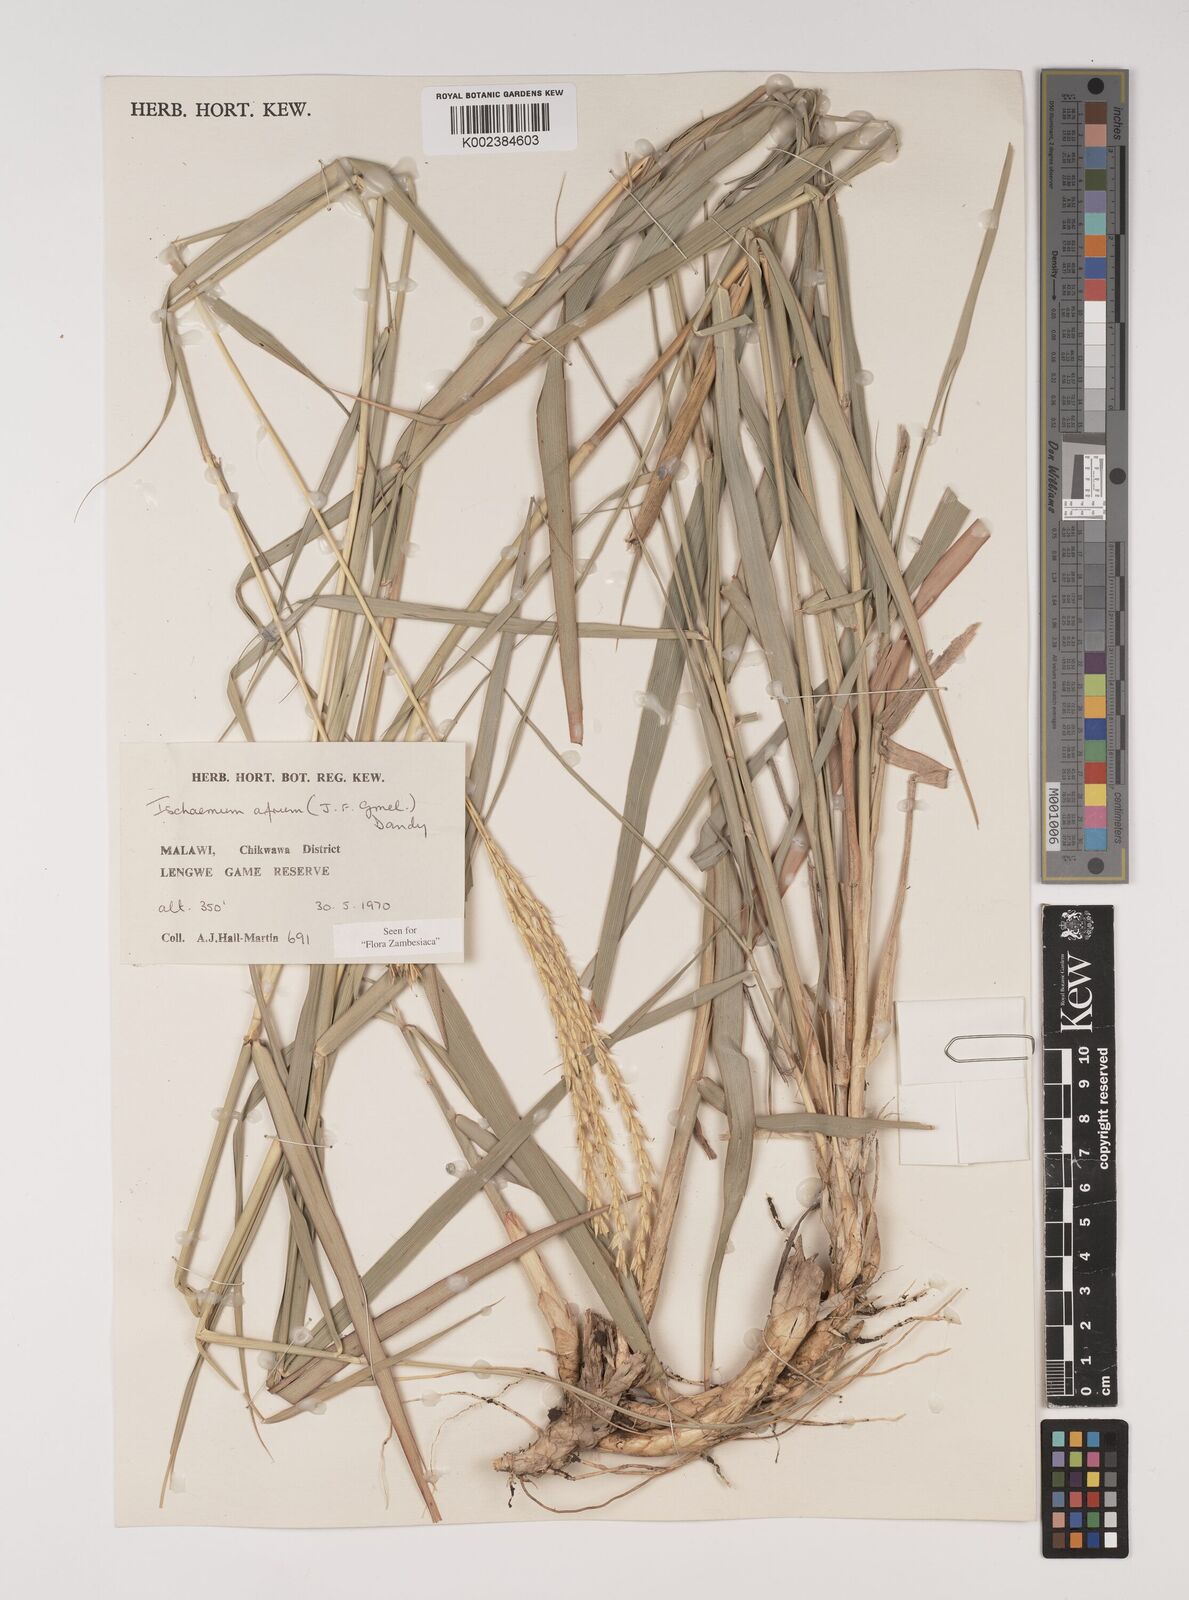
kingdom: Plantae
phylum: Tracheophyta
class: Liliopsida
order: Poales
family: Poaceae
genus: Ischaemum
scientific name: Ischaemum afrum
